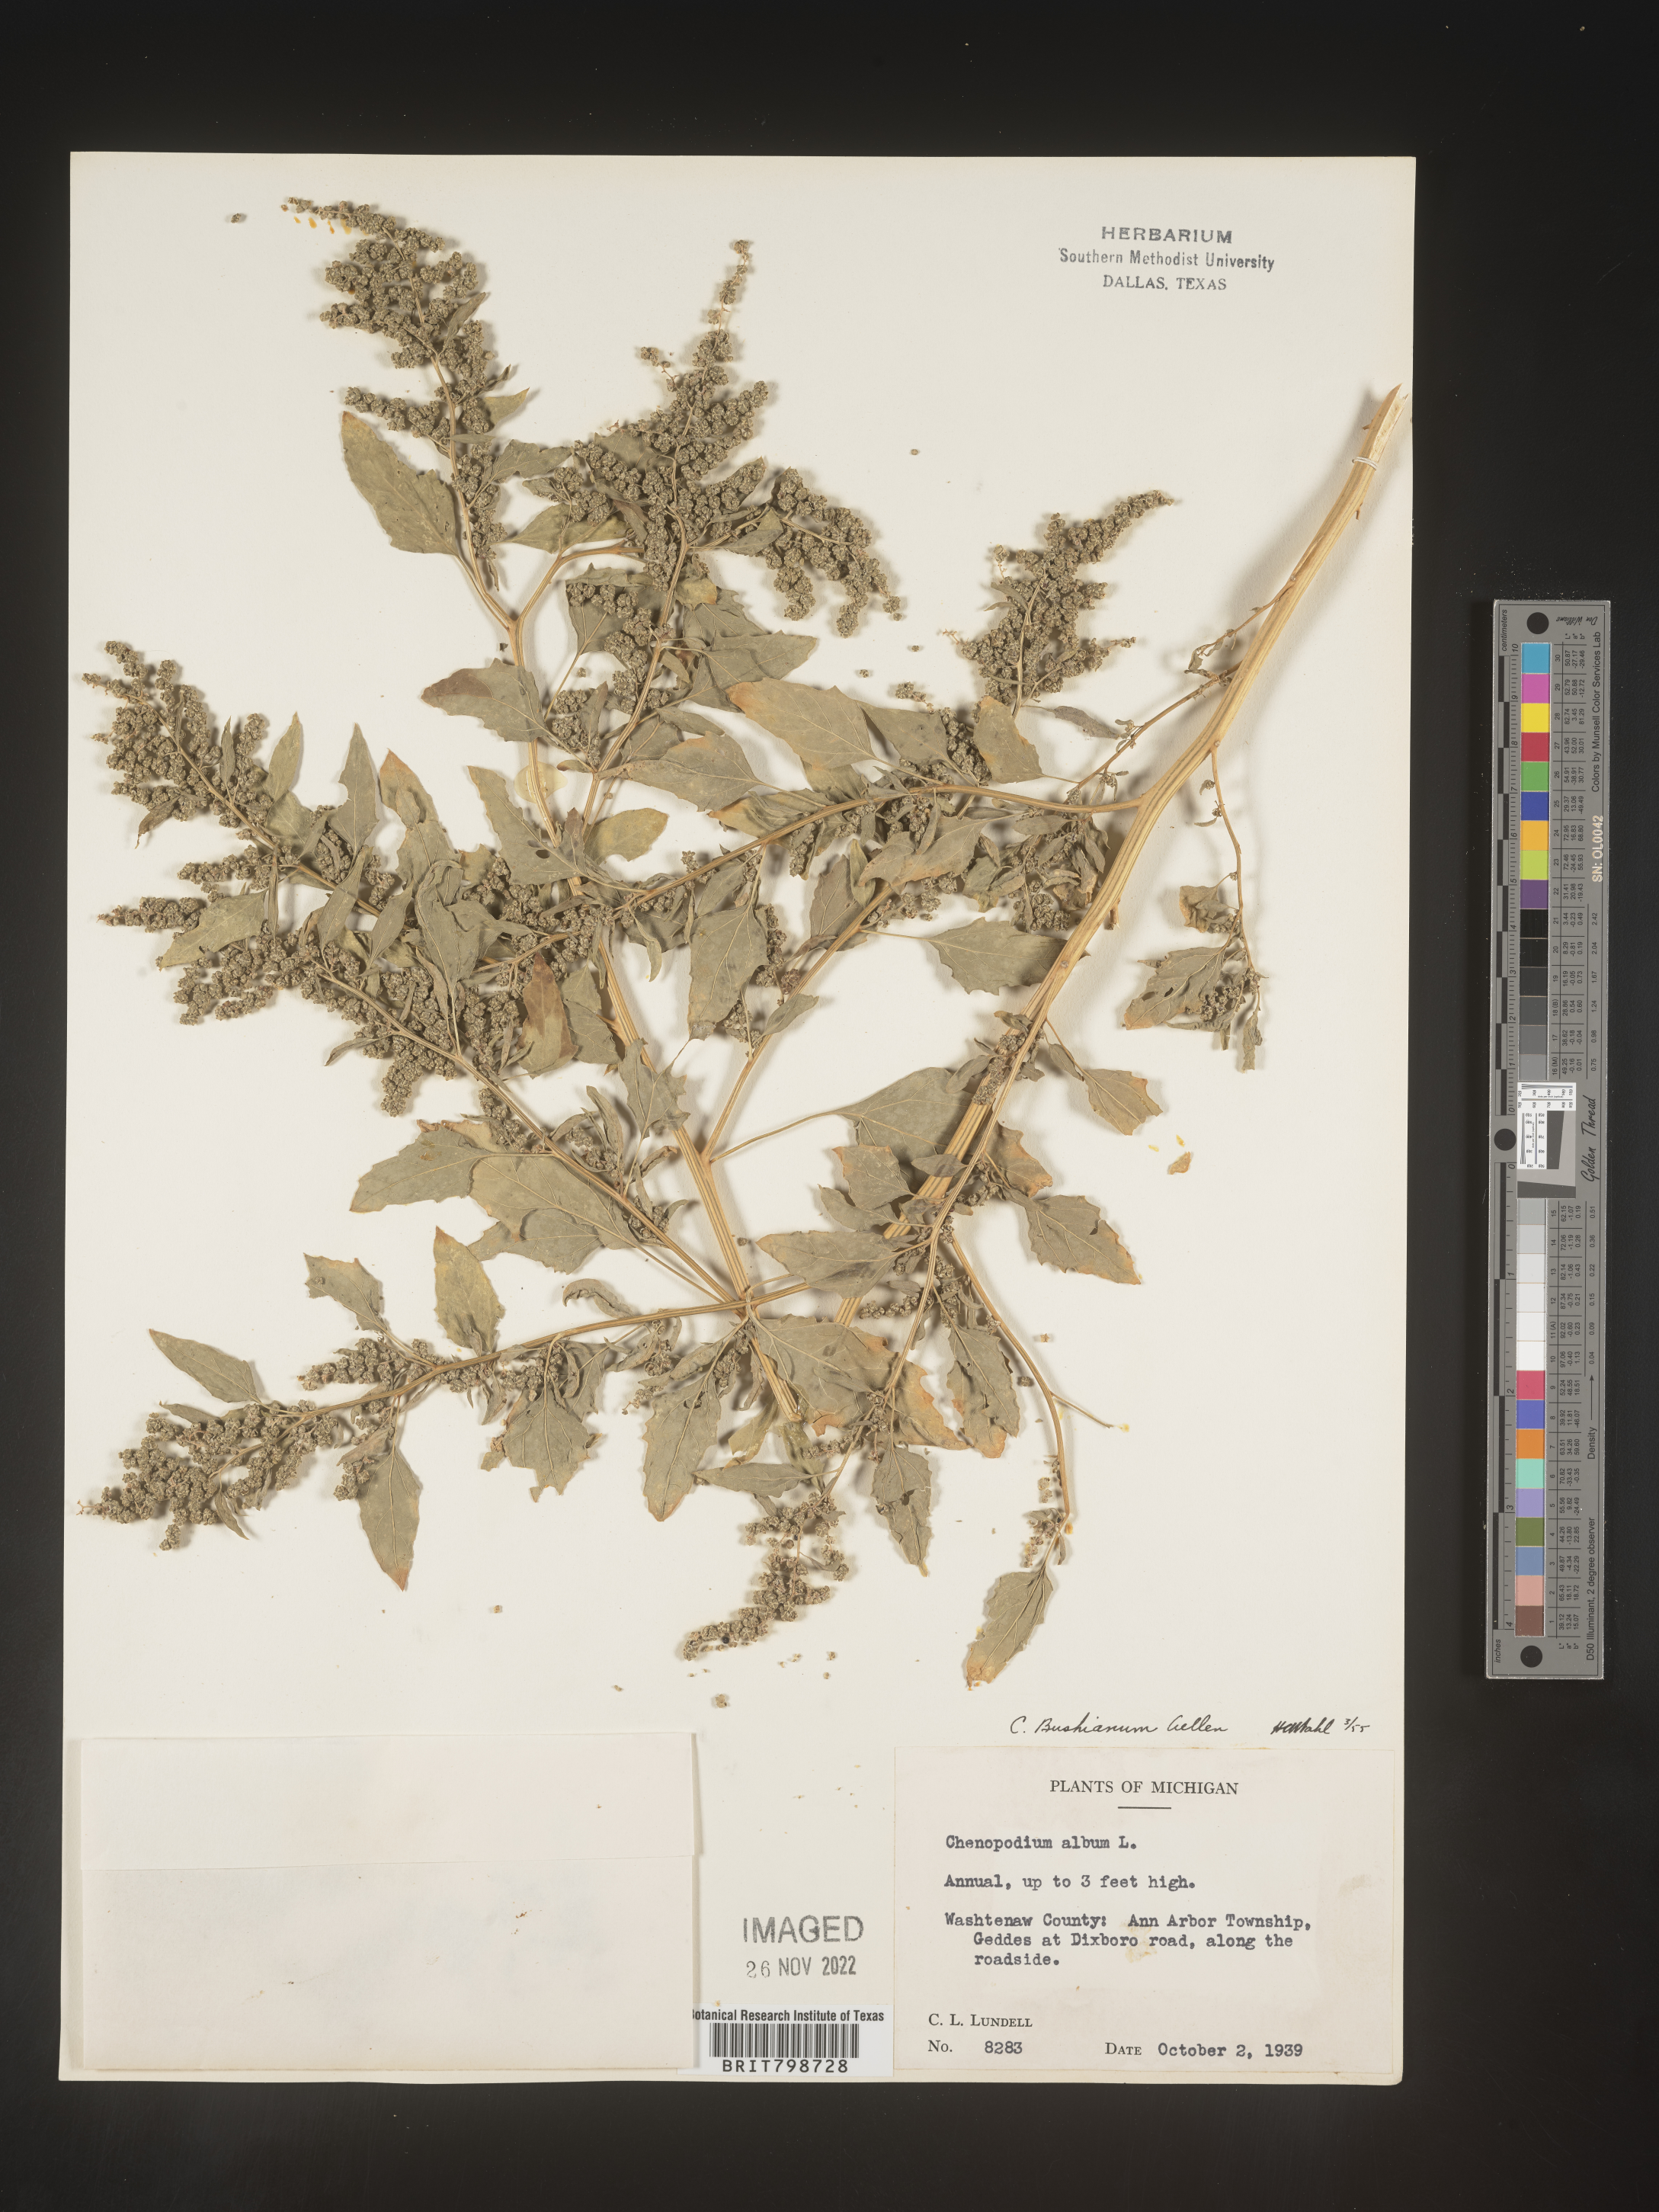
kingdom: Plantae
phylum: Tracheophyta
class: Magnoliopsida
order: Caryophyllales
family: Amaranthaceae
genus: Chenopodium
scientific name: Chenopodium berlandieri
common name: Pit-seed goosefoot
